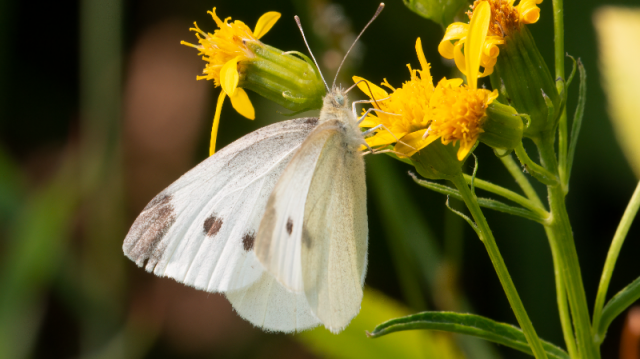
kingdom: Animalia
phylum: Arthropoda
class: Insecta
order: Lepidoptera
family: Pieridae
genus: Pieris
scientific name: Pieris rapae
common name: Cabbage White
